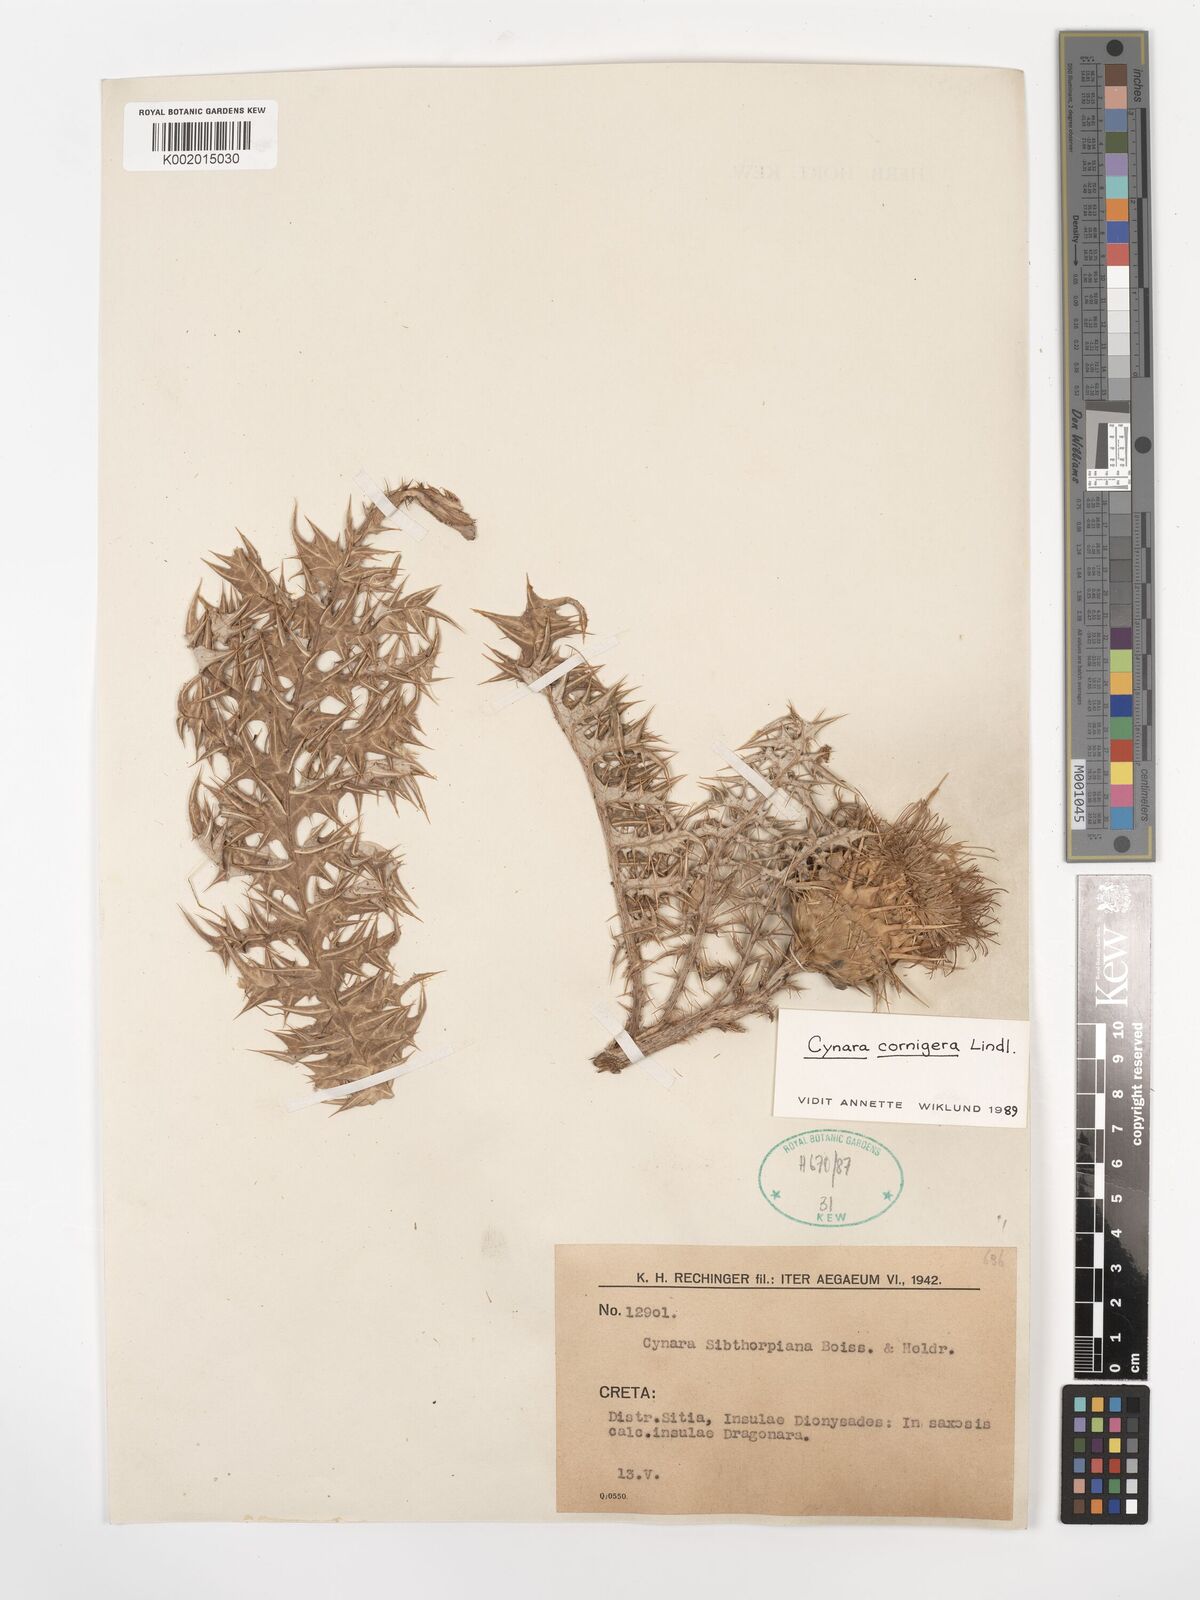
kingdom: Plantae
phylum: Tracheophyta
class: Magnoliopsida
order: Asterales
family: Asteraceae
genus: Cynara
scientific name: Cynara cornigera
